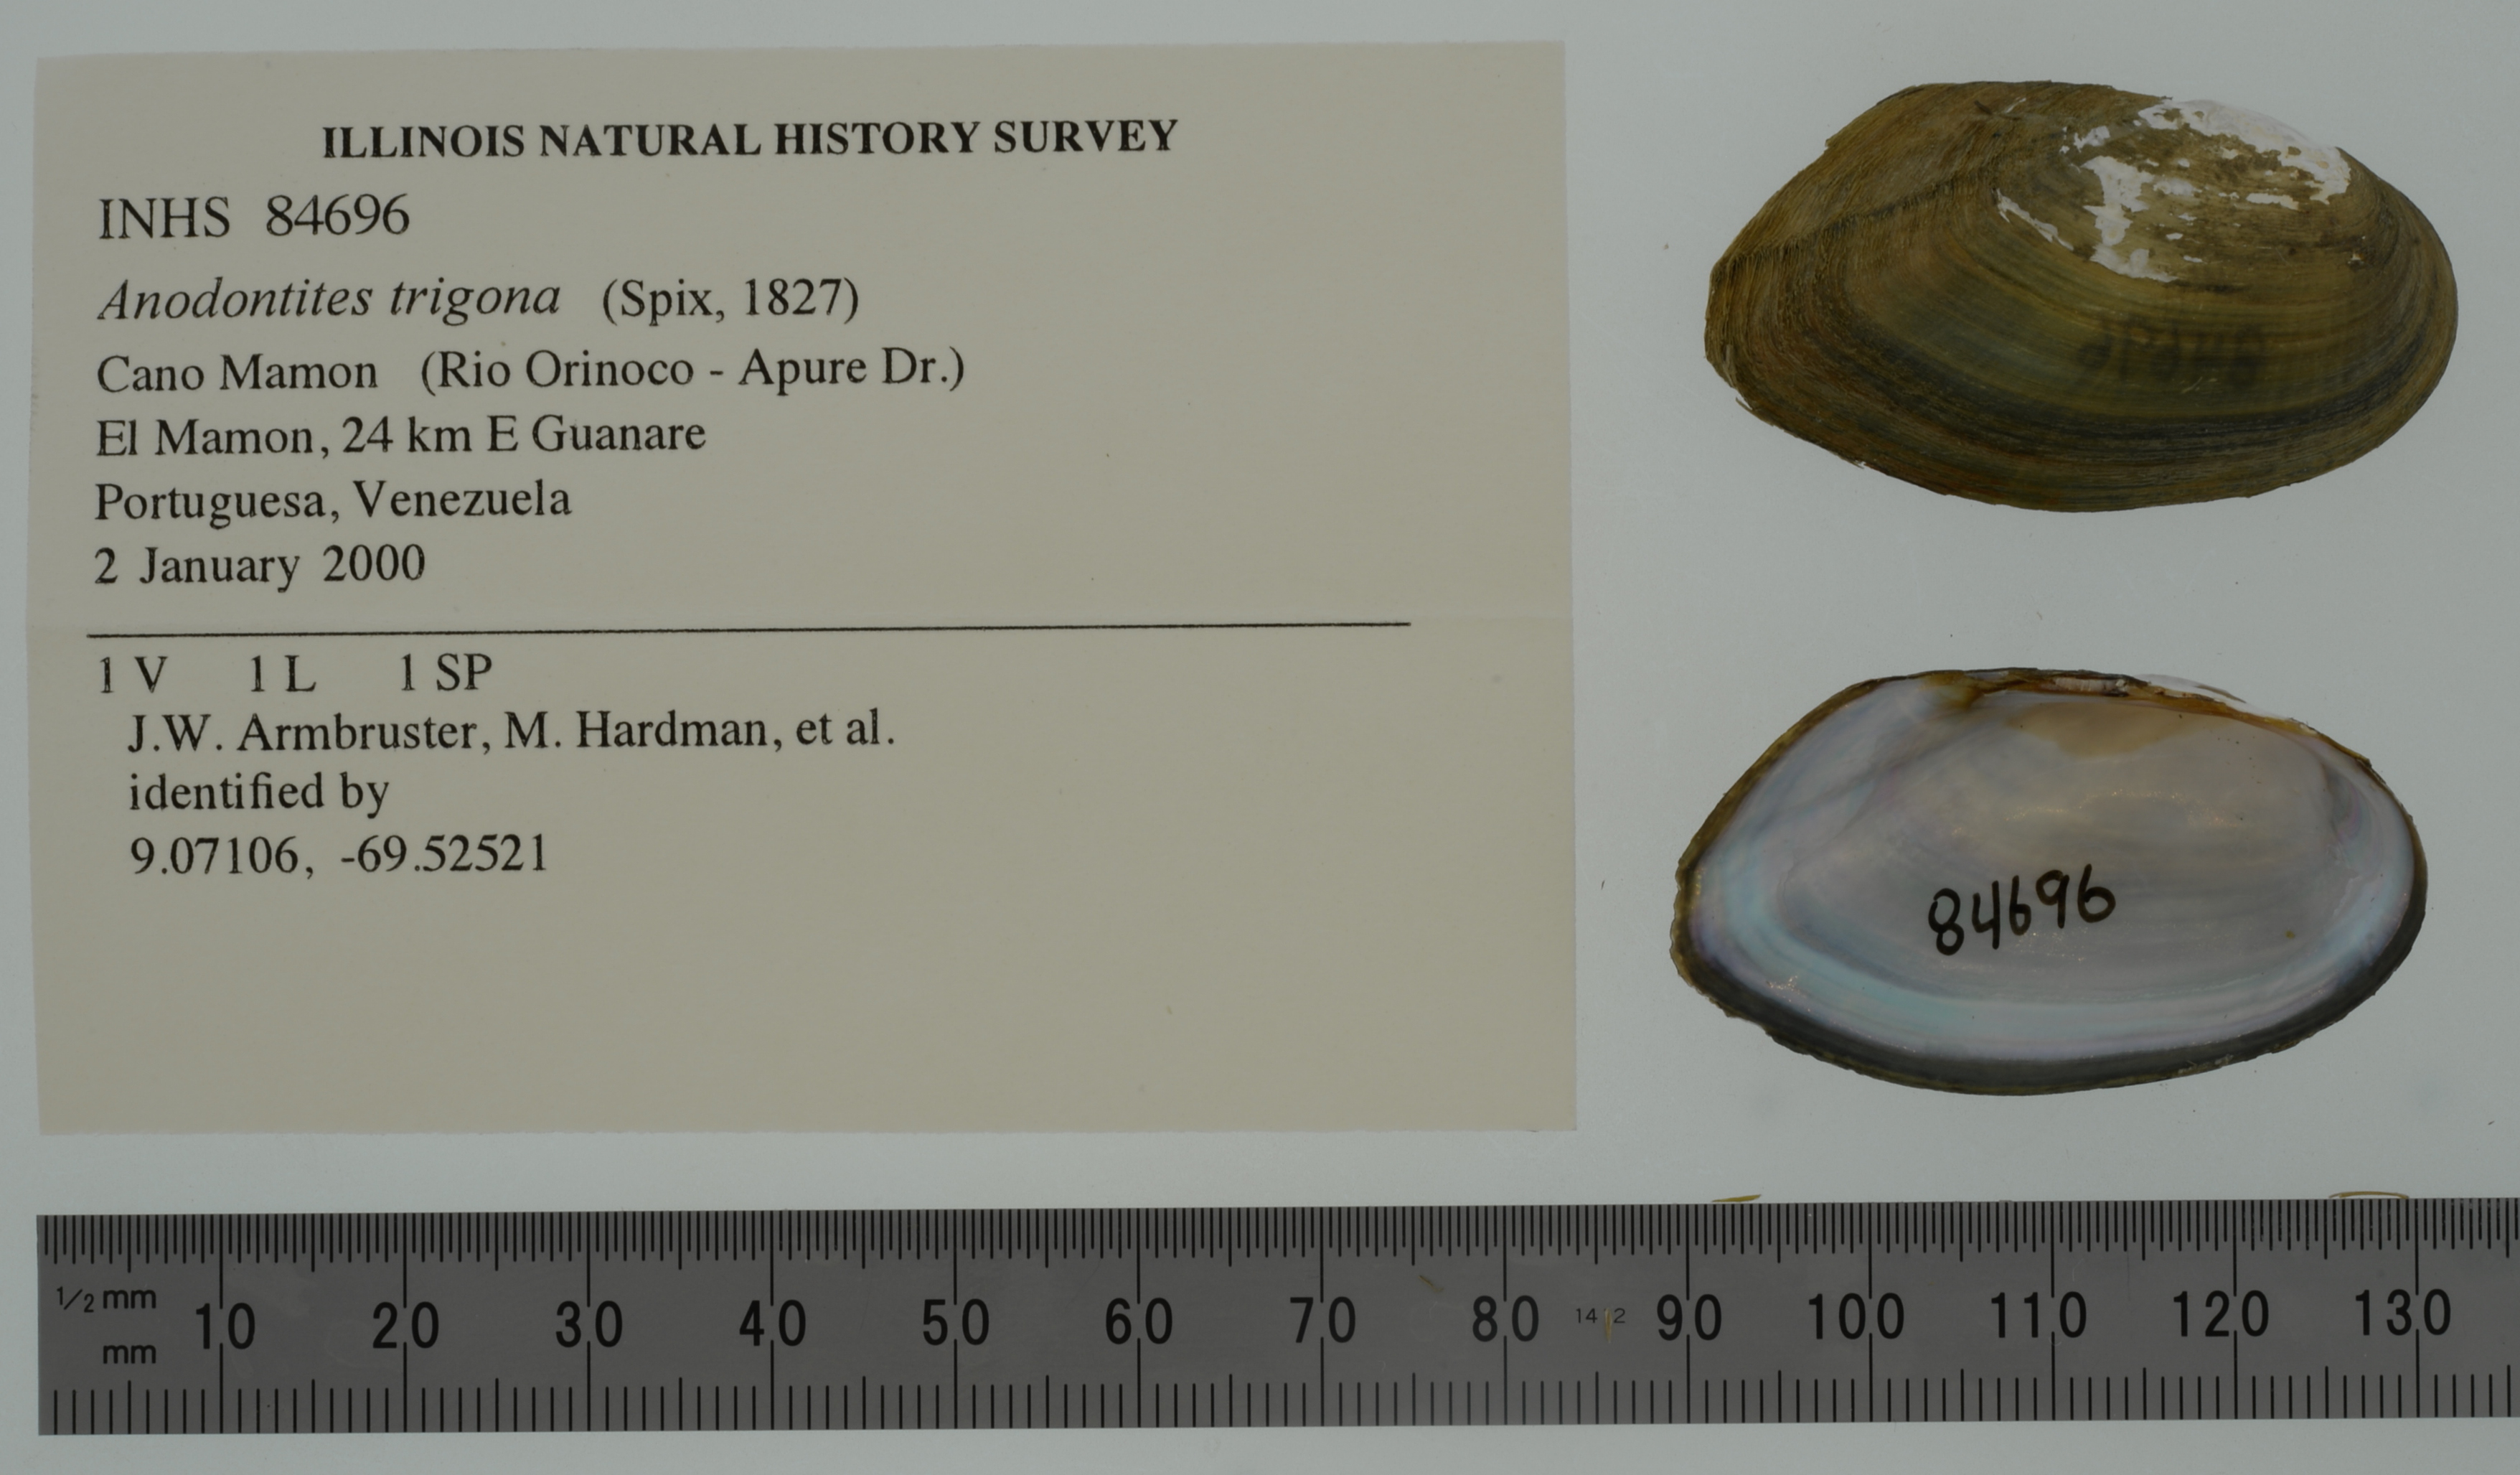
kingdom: Animalia
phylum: Mollusca
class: Bivalvia
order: Unionida
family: Mycetopodidae
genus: Anodontites
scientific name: Anodontites trigona
